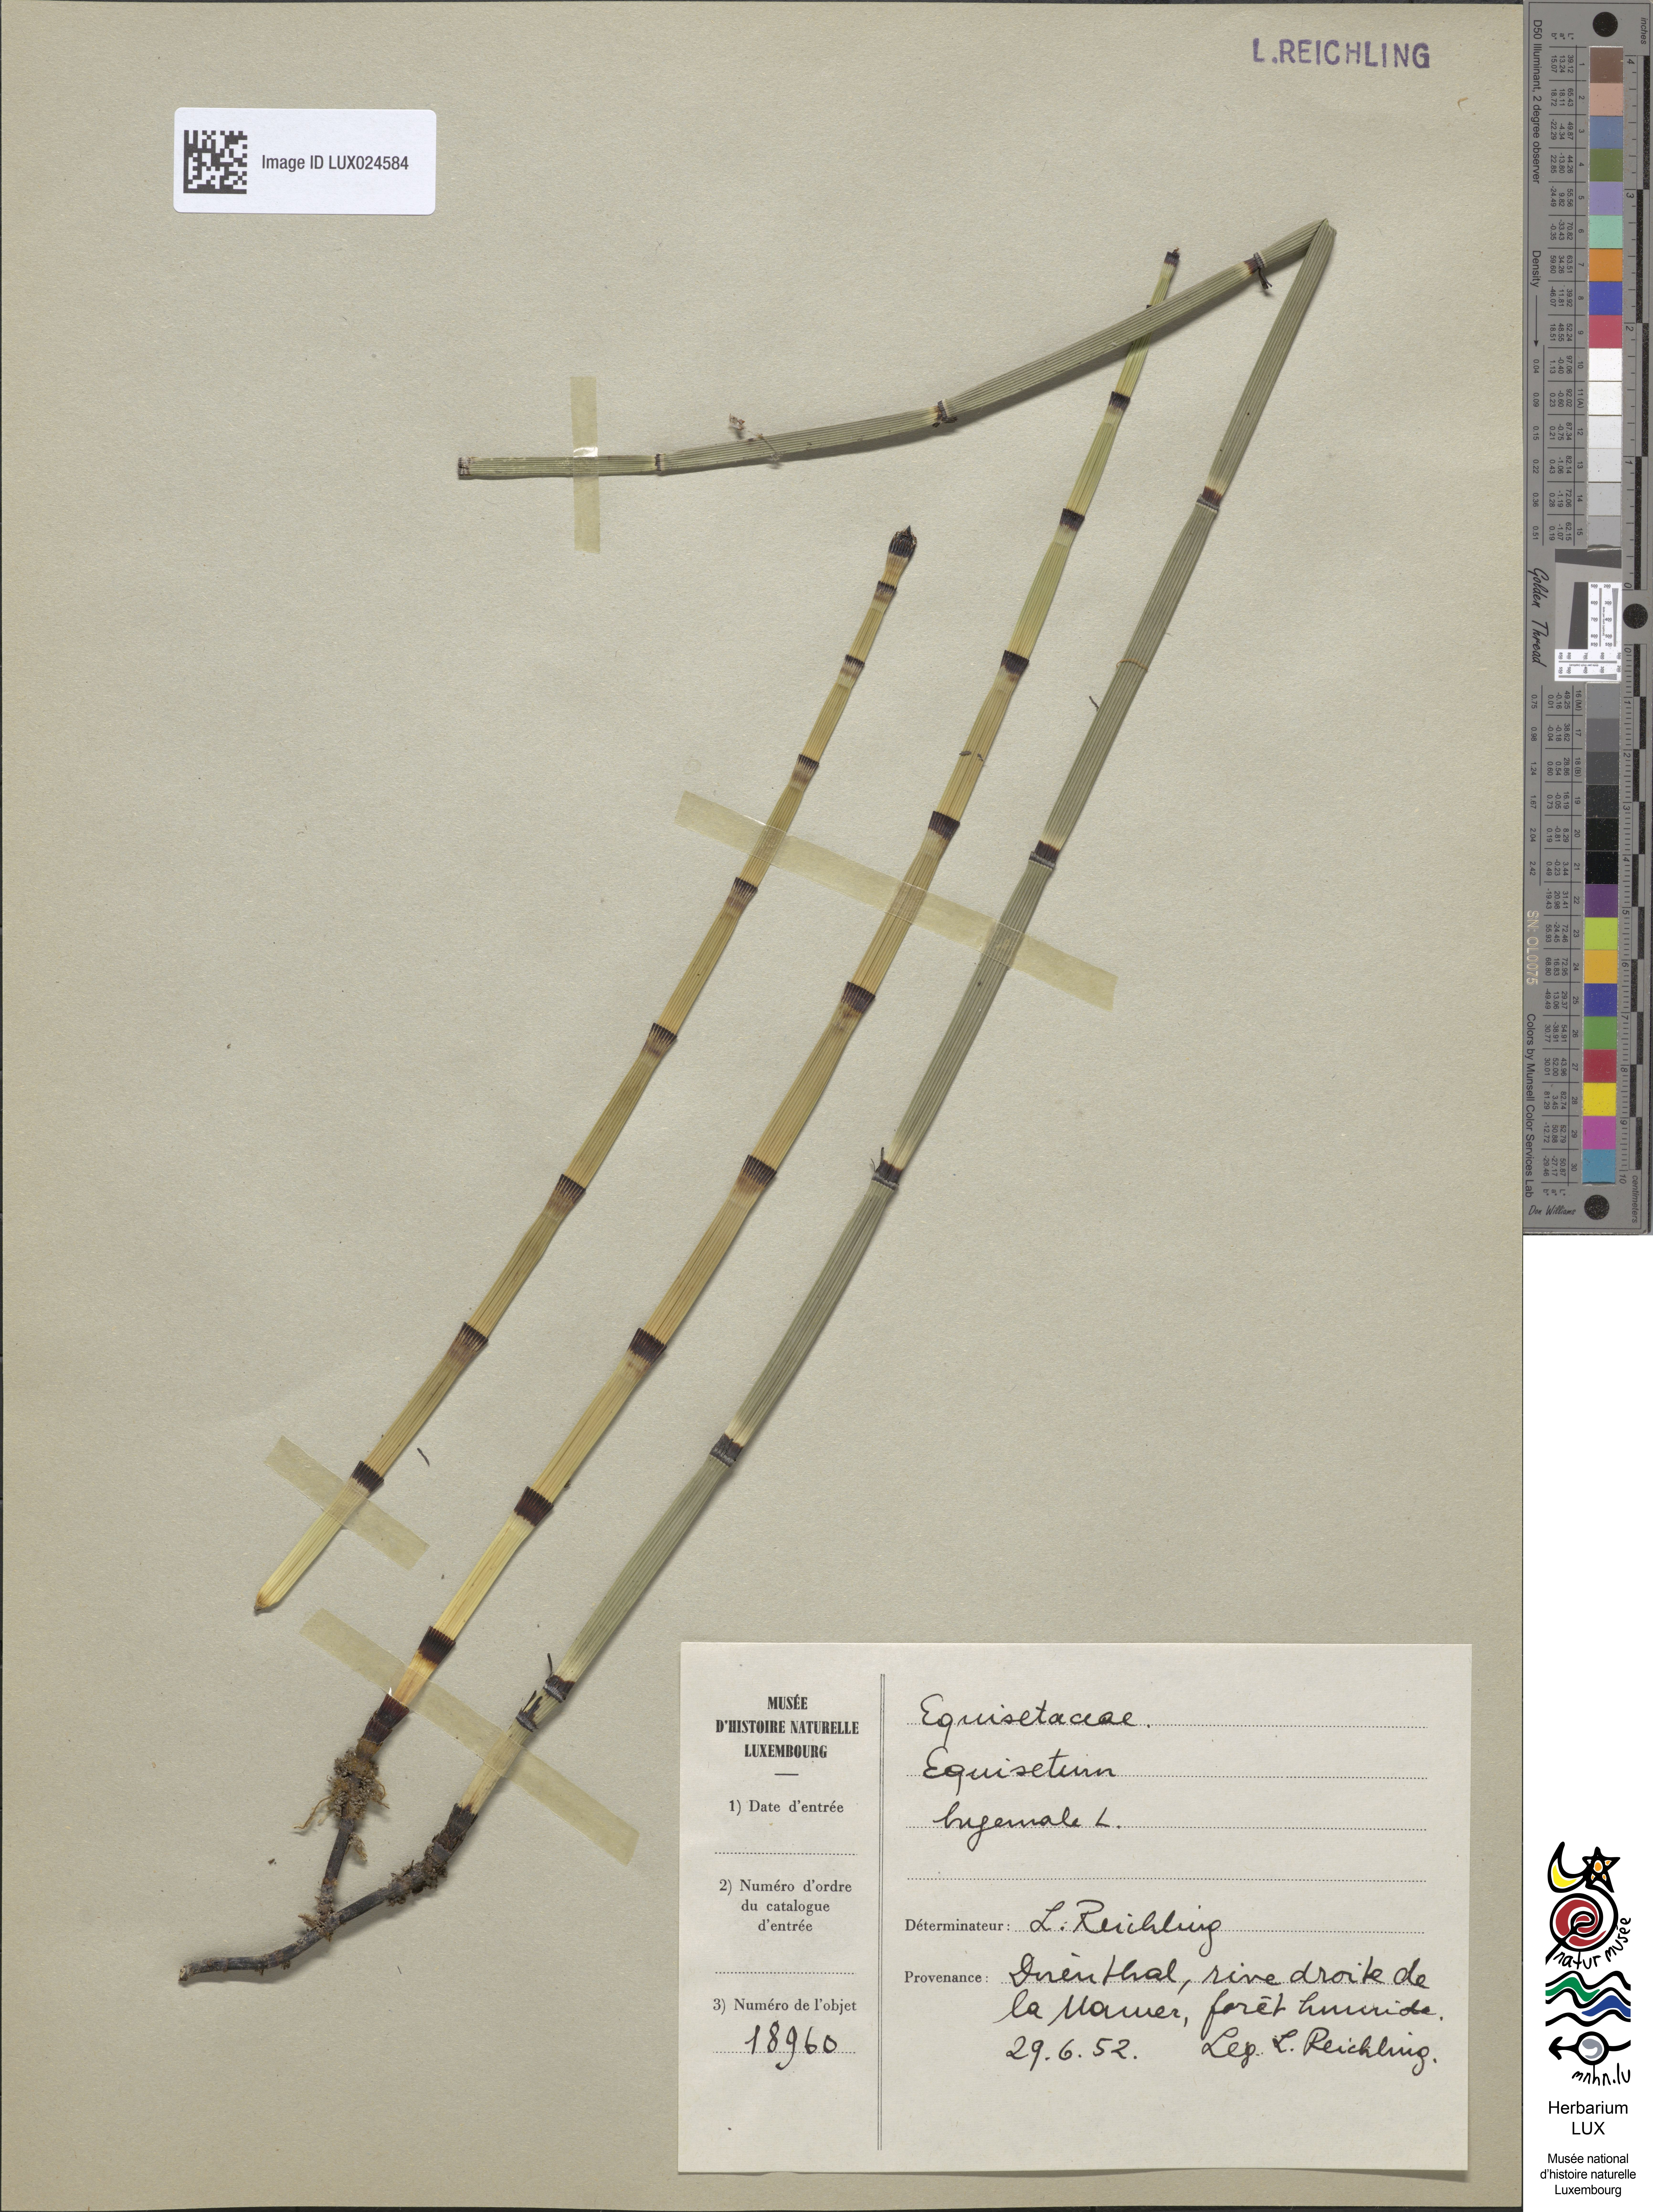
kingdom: Plantae
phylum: Tracheophyta
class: Polypodiopsida
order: Equisetales
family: Equisetaceae
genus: Equisetum
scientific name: Equisetum hyemale
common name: Rough horsetail
